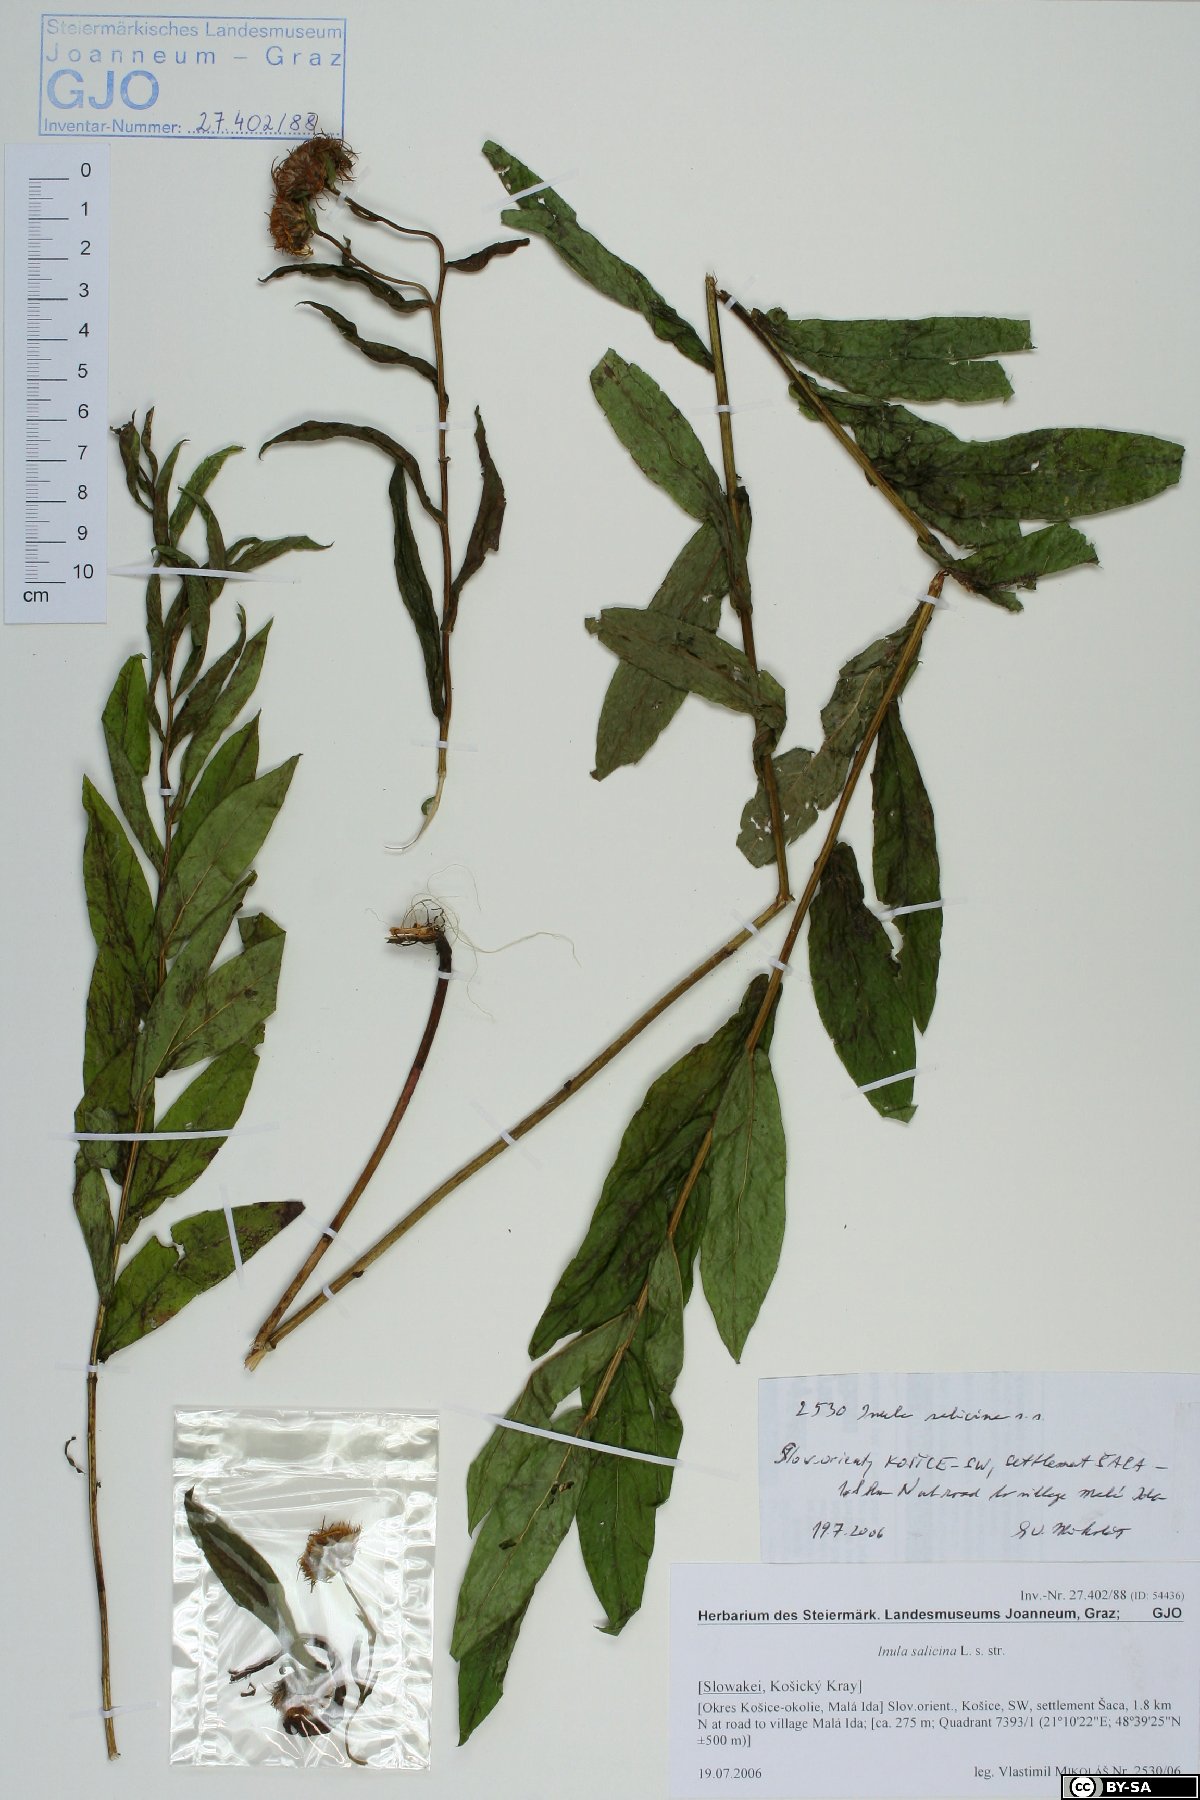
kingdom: Plantae
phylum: Tracheophyta
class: Magnoliopsida
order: Asterales
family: Asteraceae
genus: Pentanema
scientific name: Pentanema salicinum
